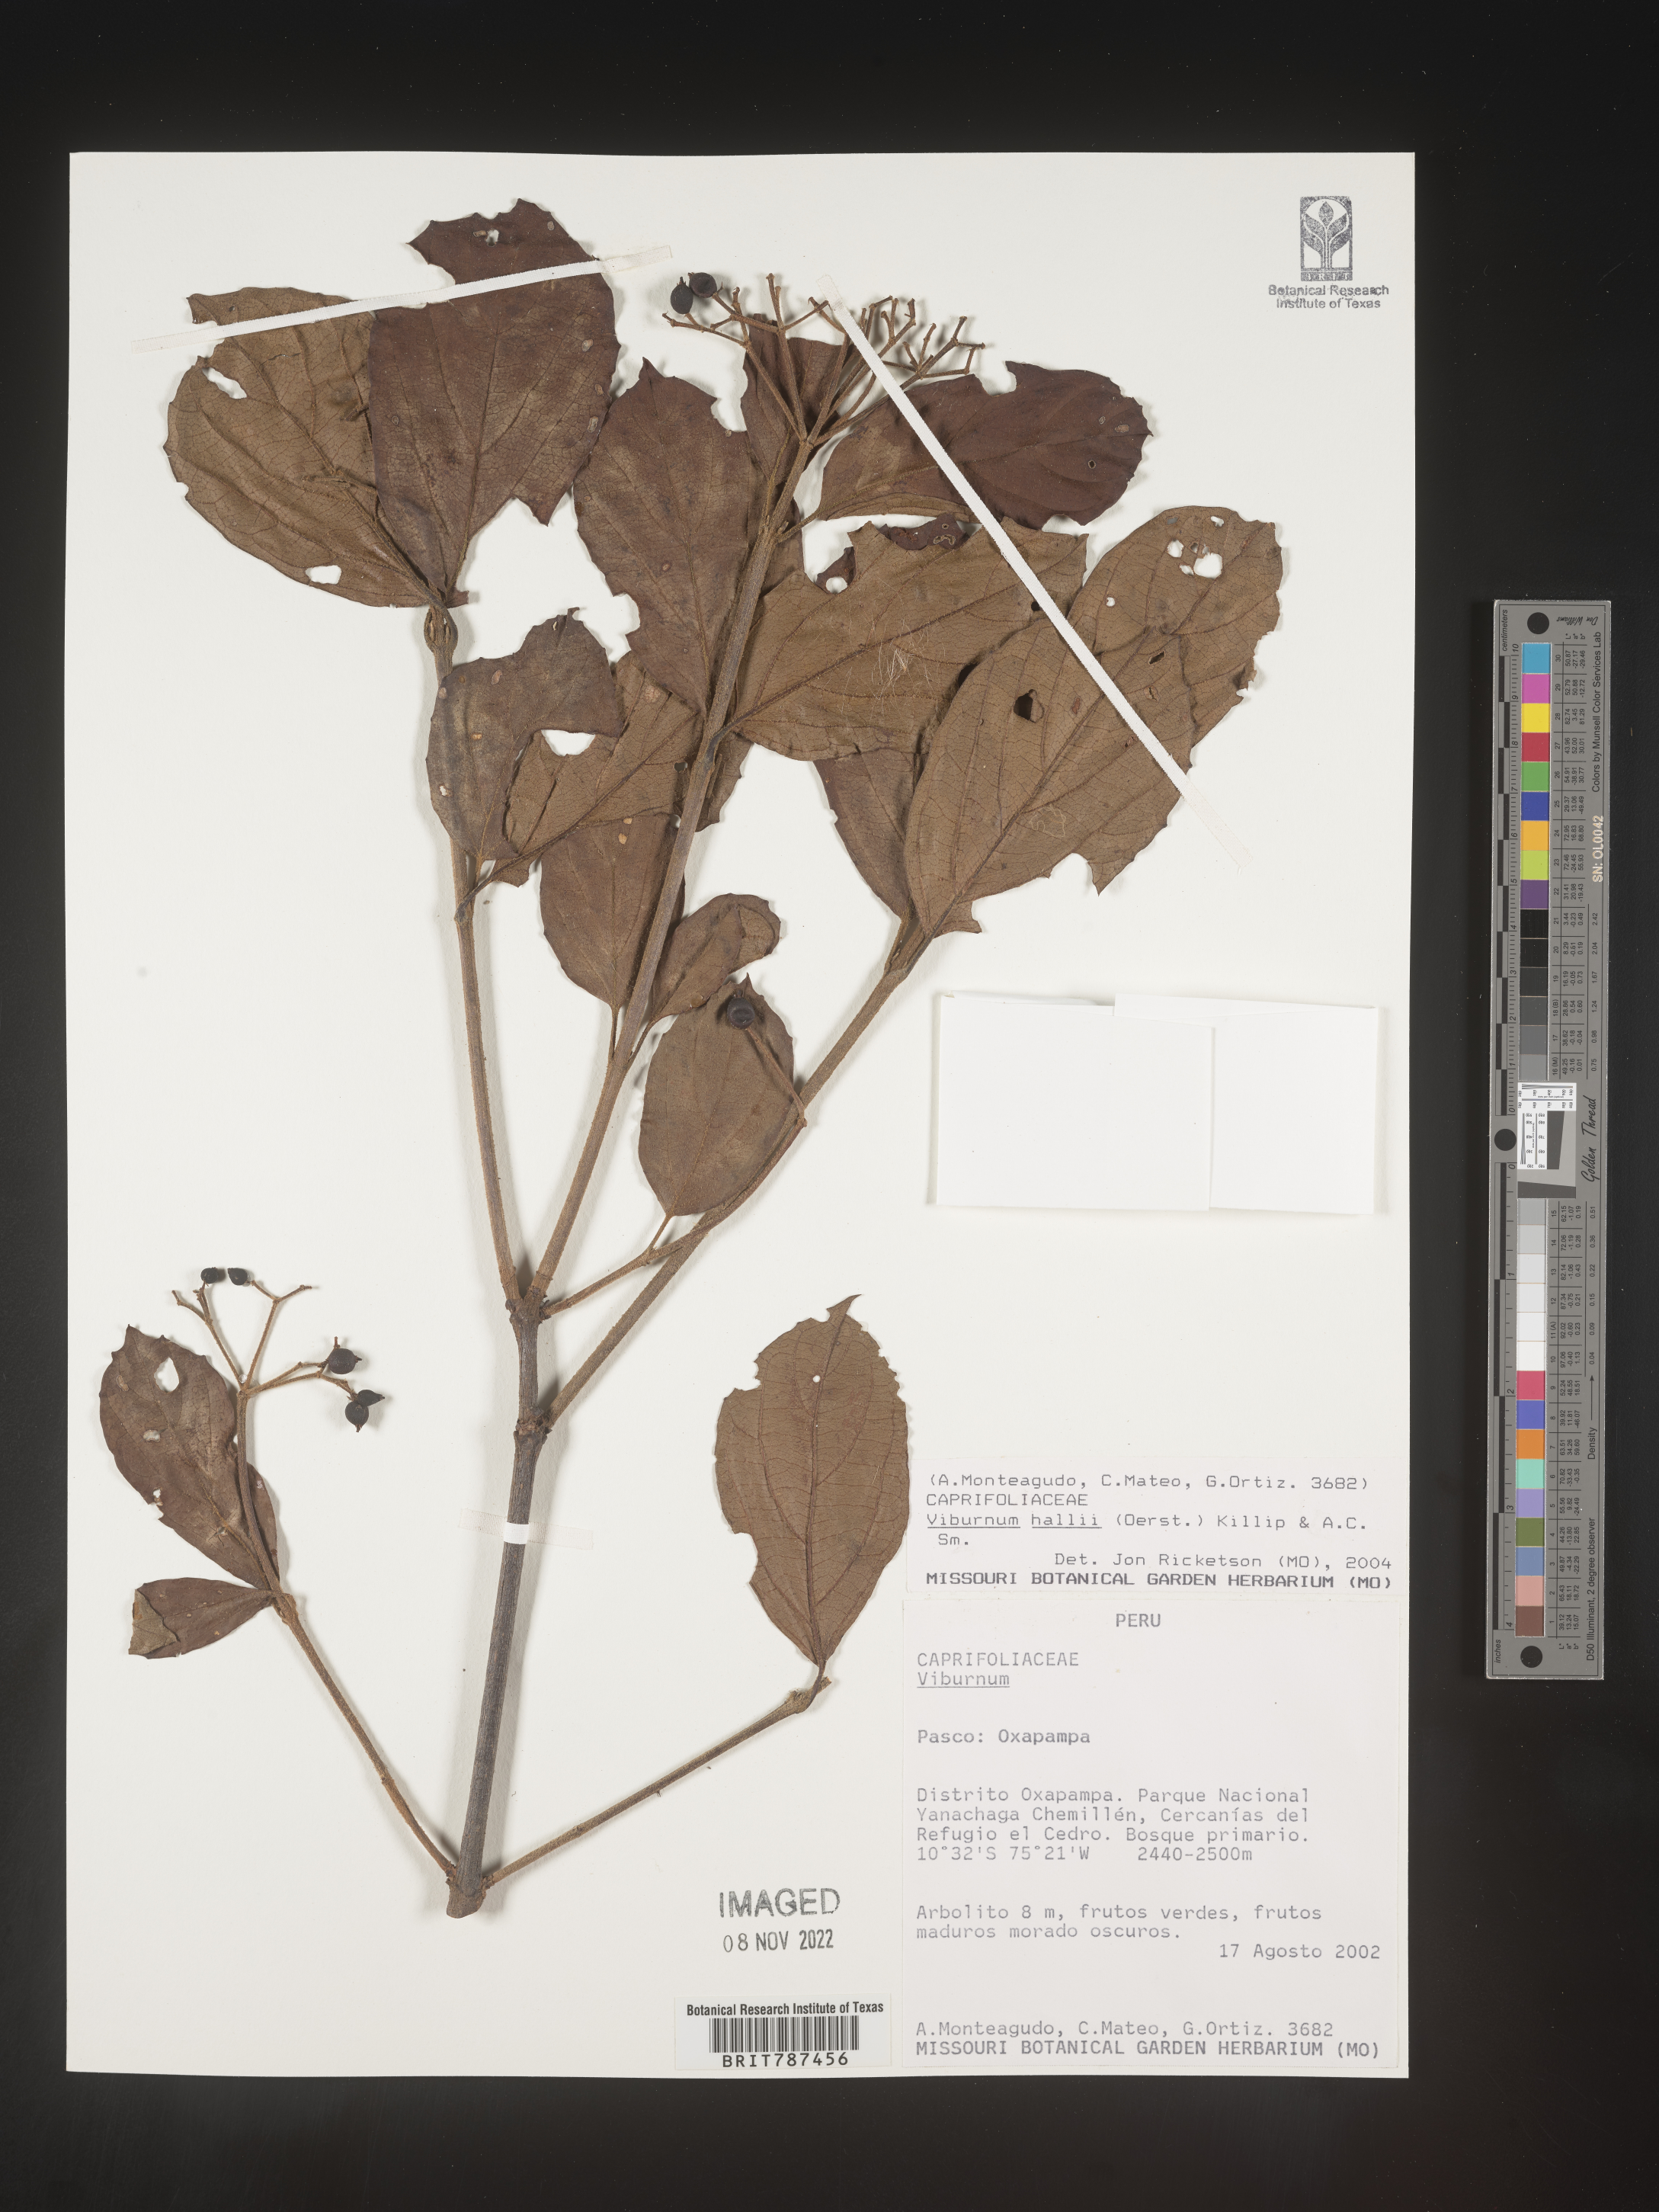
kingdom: Plantae
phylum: Tracheophyta
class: Magnoliopsida
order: Dipsacales
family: Viburnaceae
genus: Viburnum
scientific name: Viburnum
